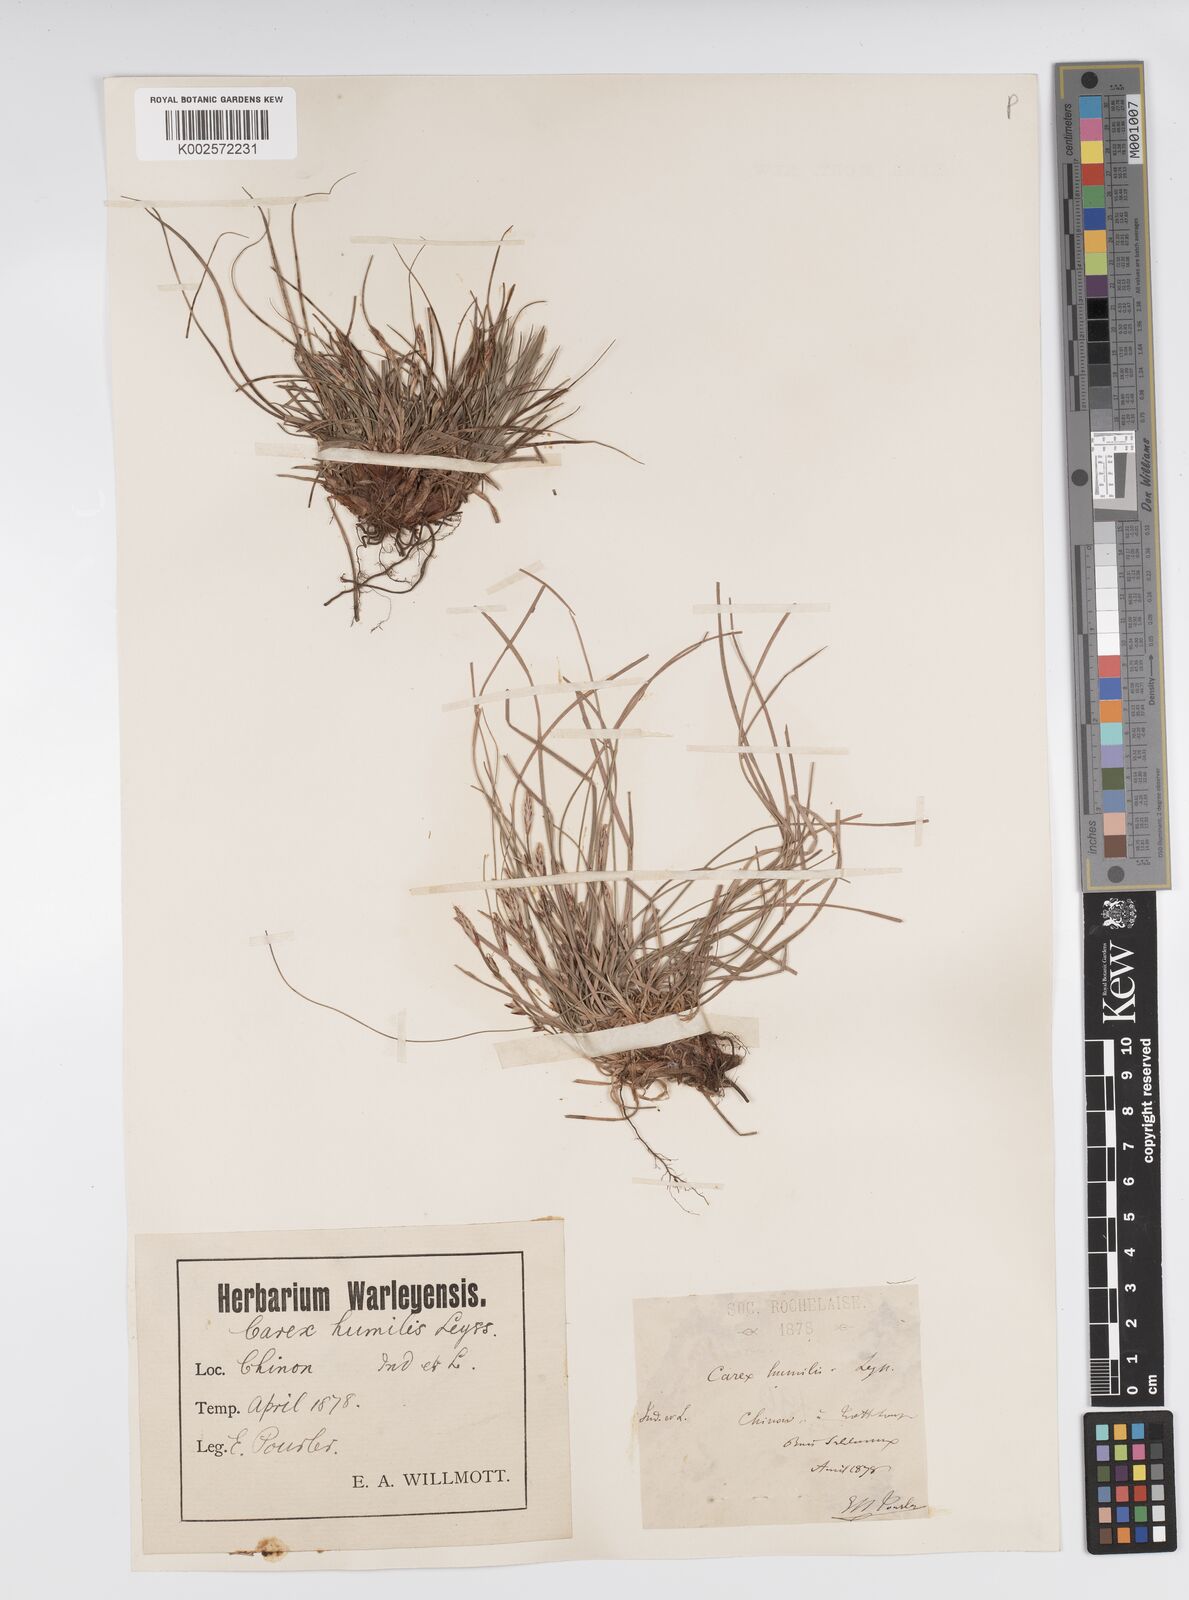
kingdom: Plantae
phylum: Tracheophyta
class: Liliopsida
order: Poales
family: Cyperaceae
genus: Carex
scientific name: Carex humilis
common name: Dwarf sedge
